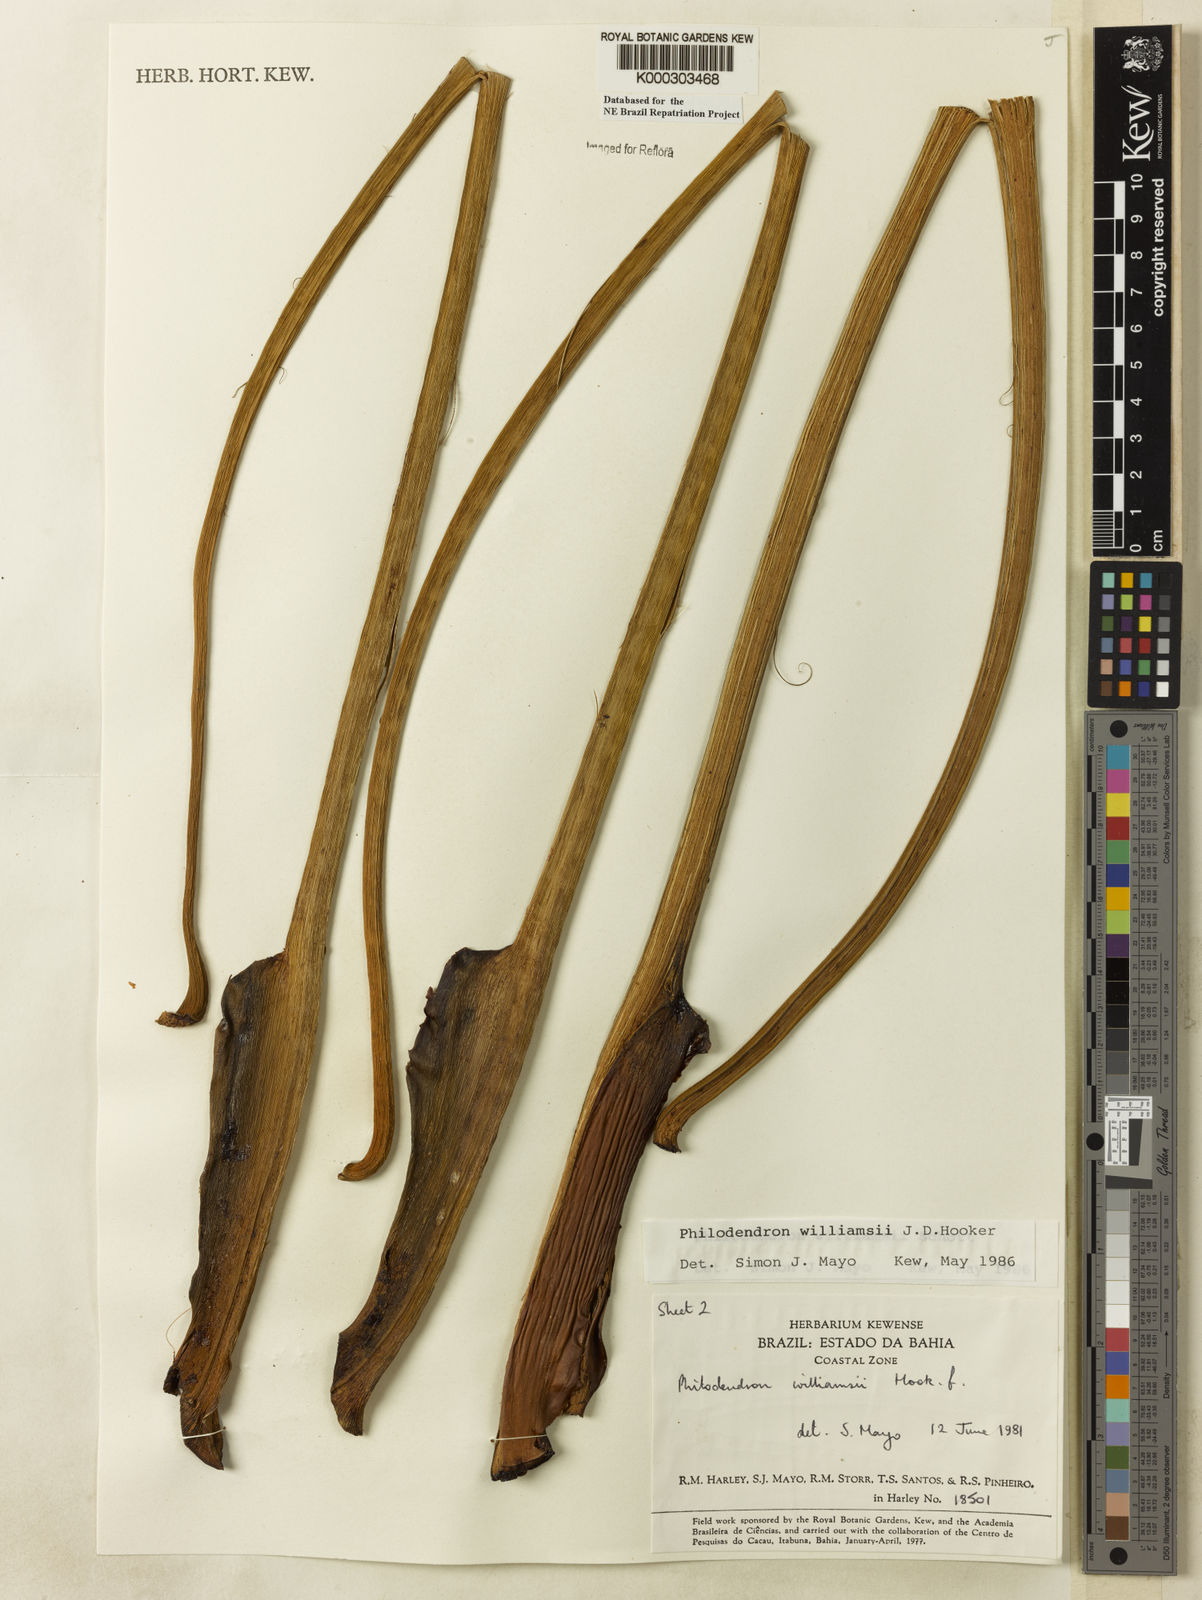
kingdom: Plantae
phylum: Tracheophyta
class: Liliopsida
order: Alismatales
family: Araceae
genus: Thaumatophyllum
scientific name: Thaumatophyllum williamsii
